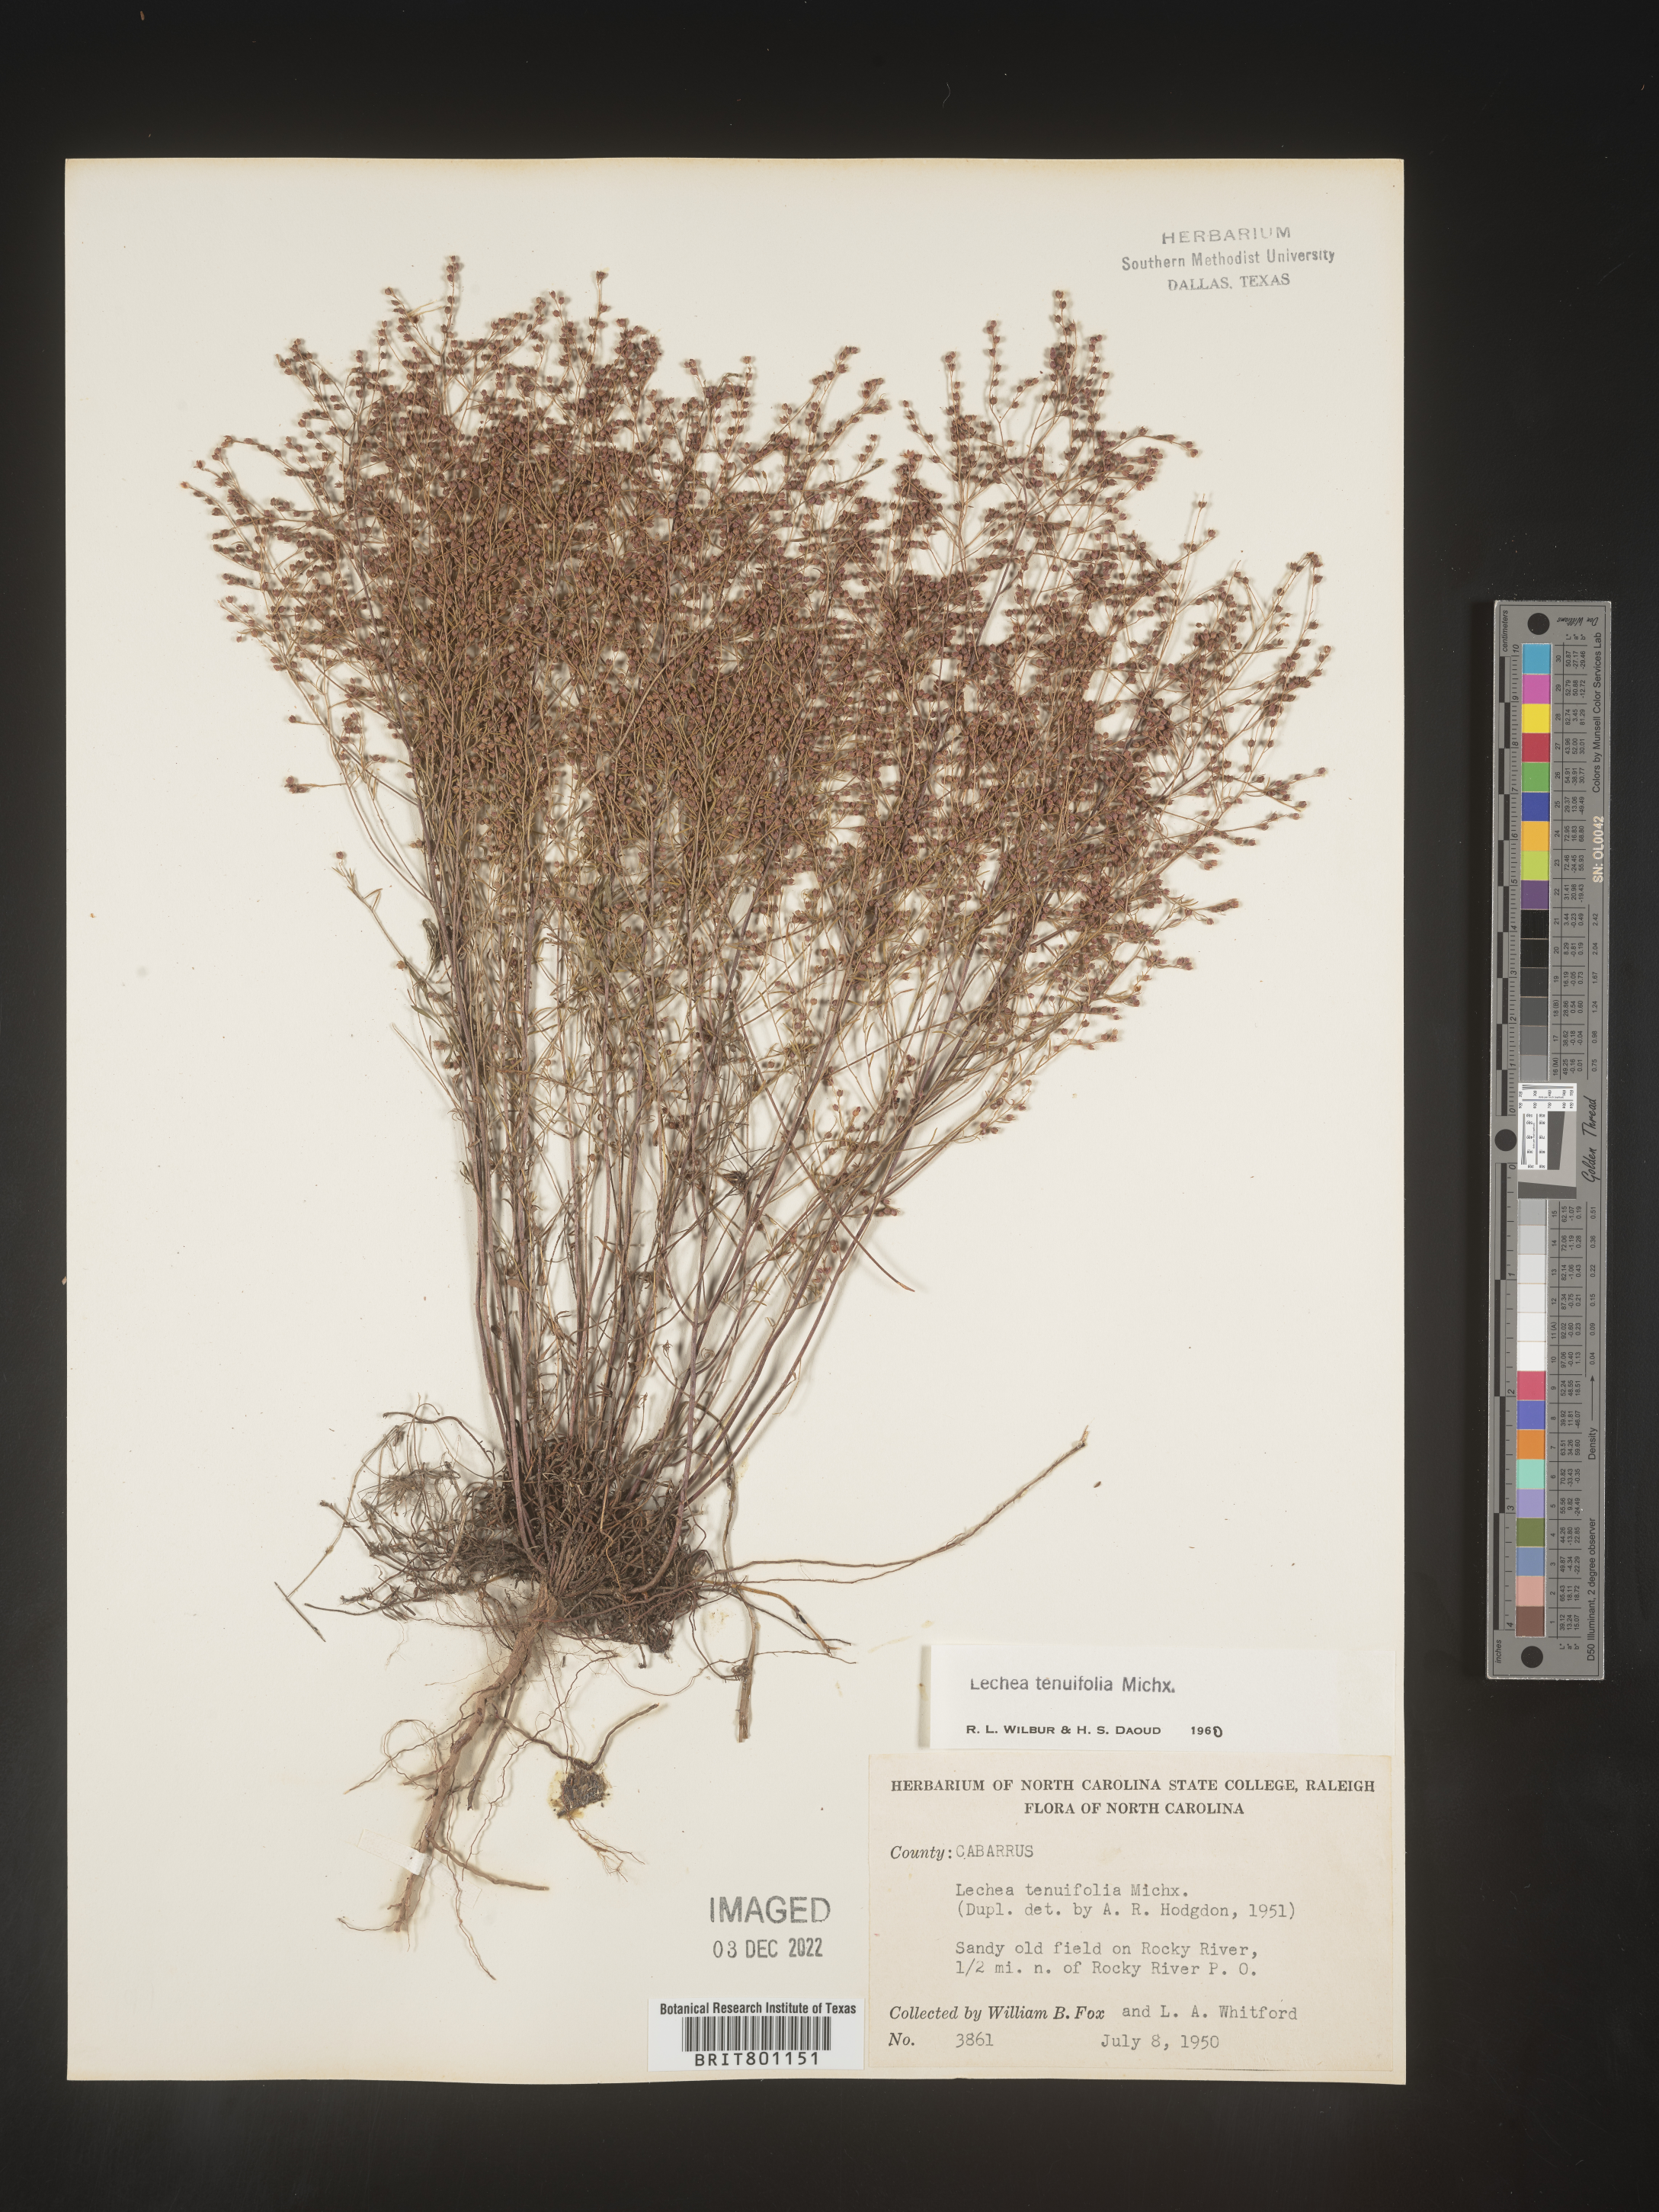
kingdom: Plantae
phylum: Tracheophyta
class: Magnoliopsida
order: Malvales
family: Cistaceae
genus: Lechea
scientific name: Lechea tenuifolia
